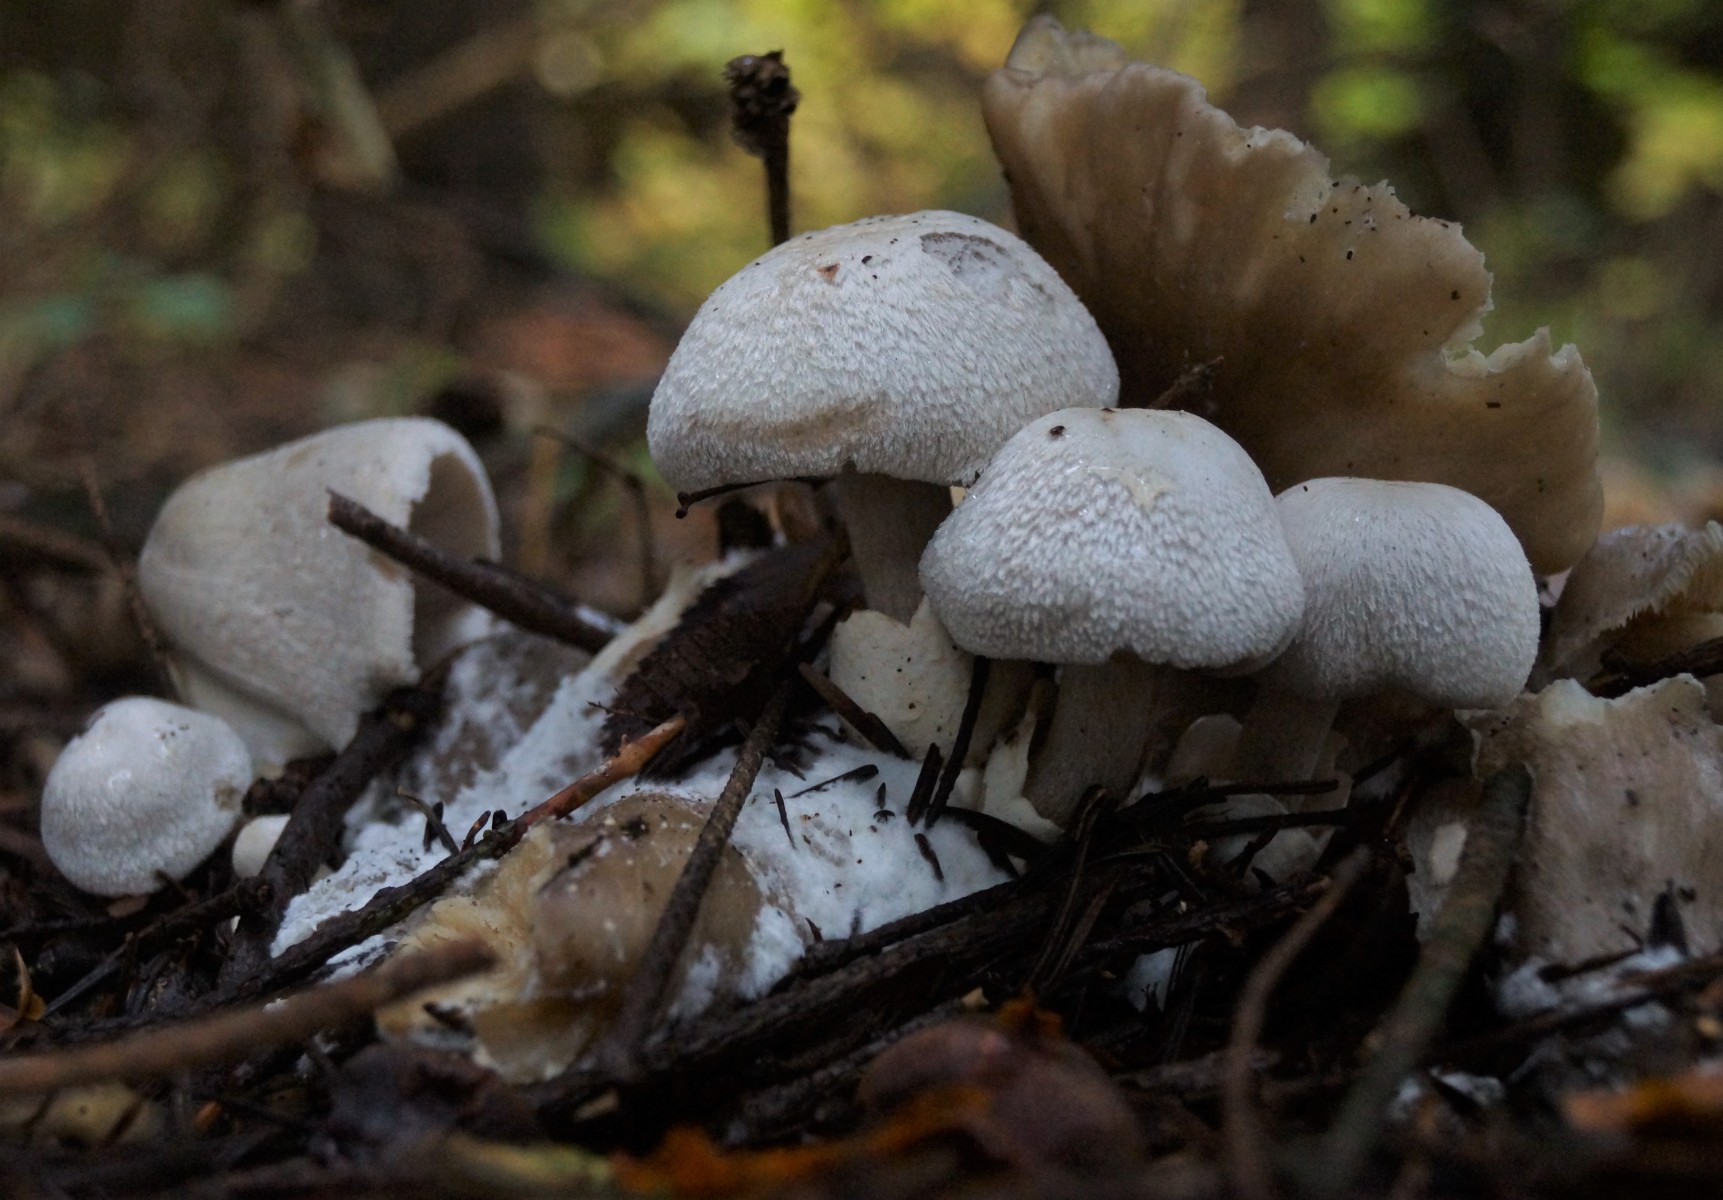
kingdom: Fungi
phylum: Basidiomycota
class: Agaricomycetes
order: Agaricales
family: Pluteaceae
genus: Volvariella
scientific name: Volvariella surrecta
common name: snyltende posesvamp
